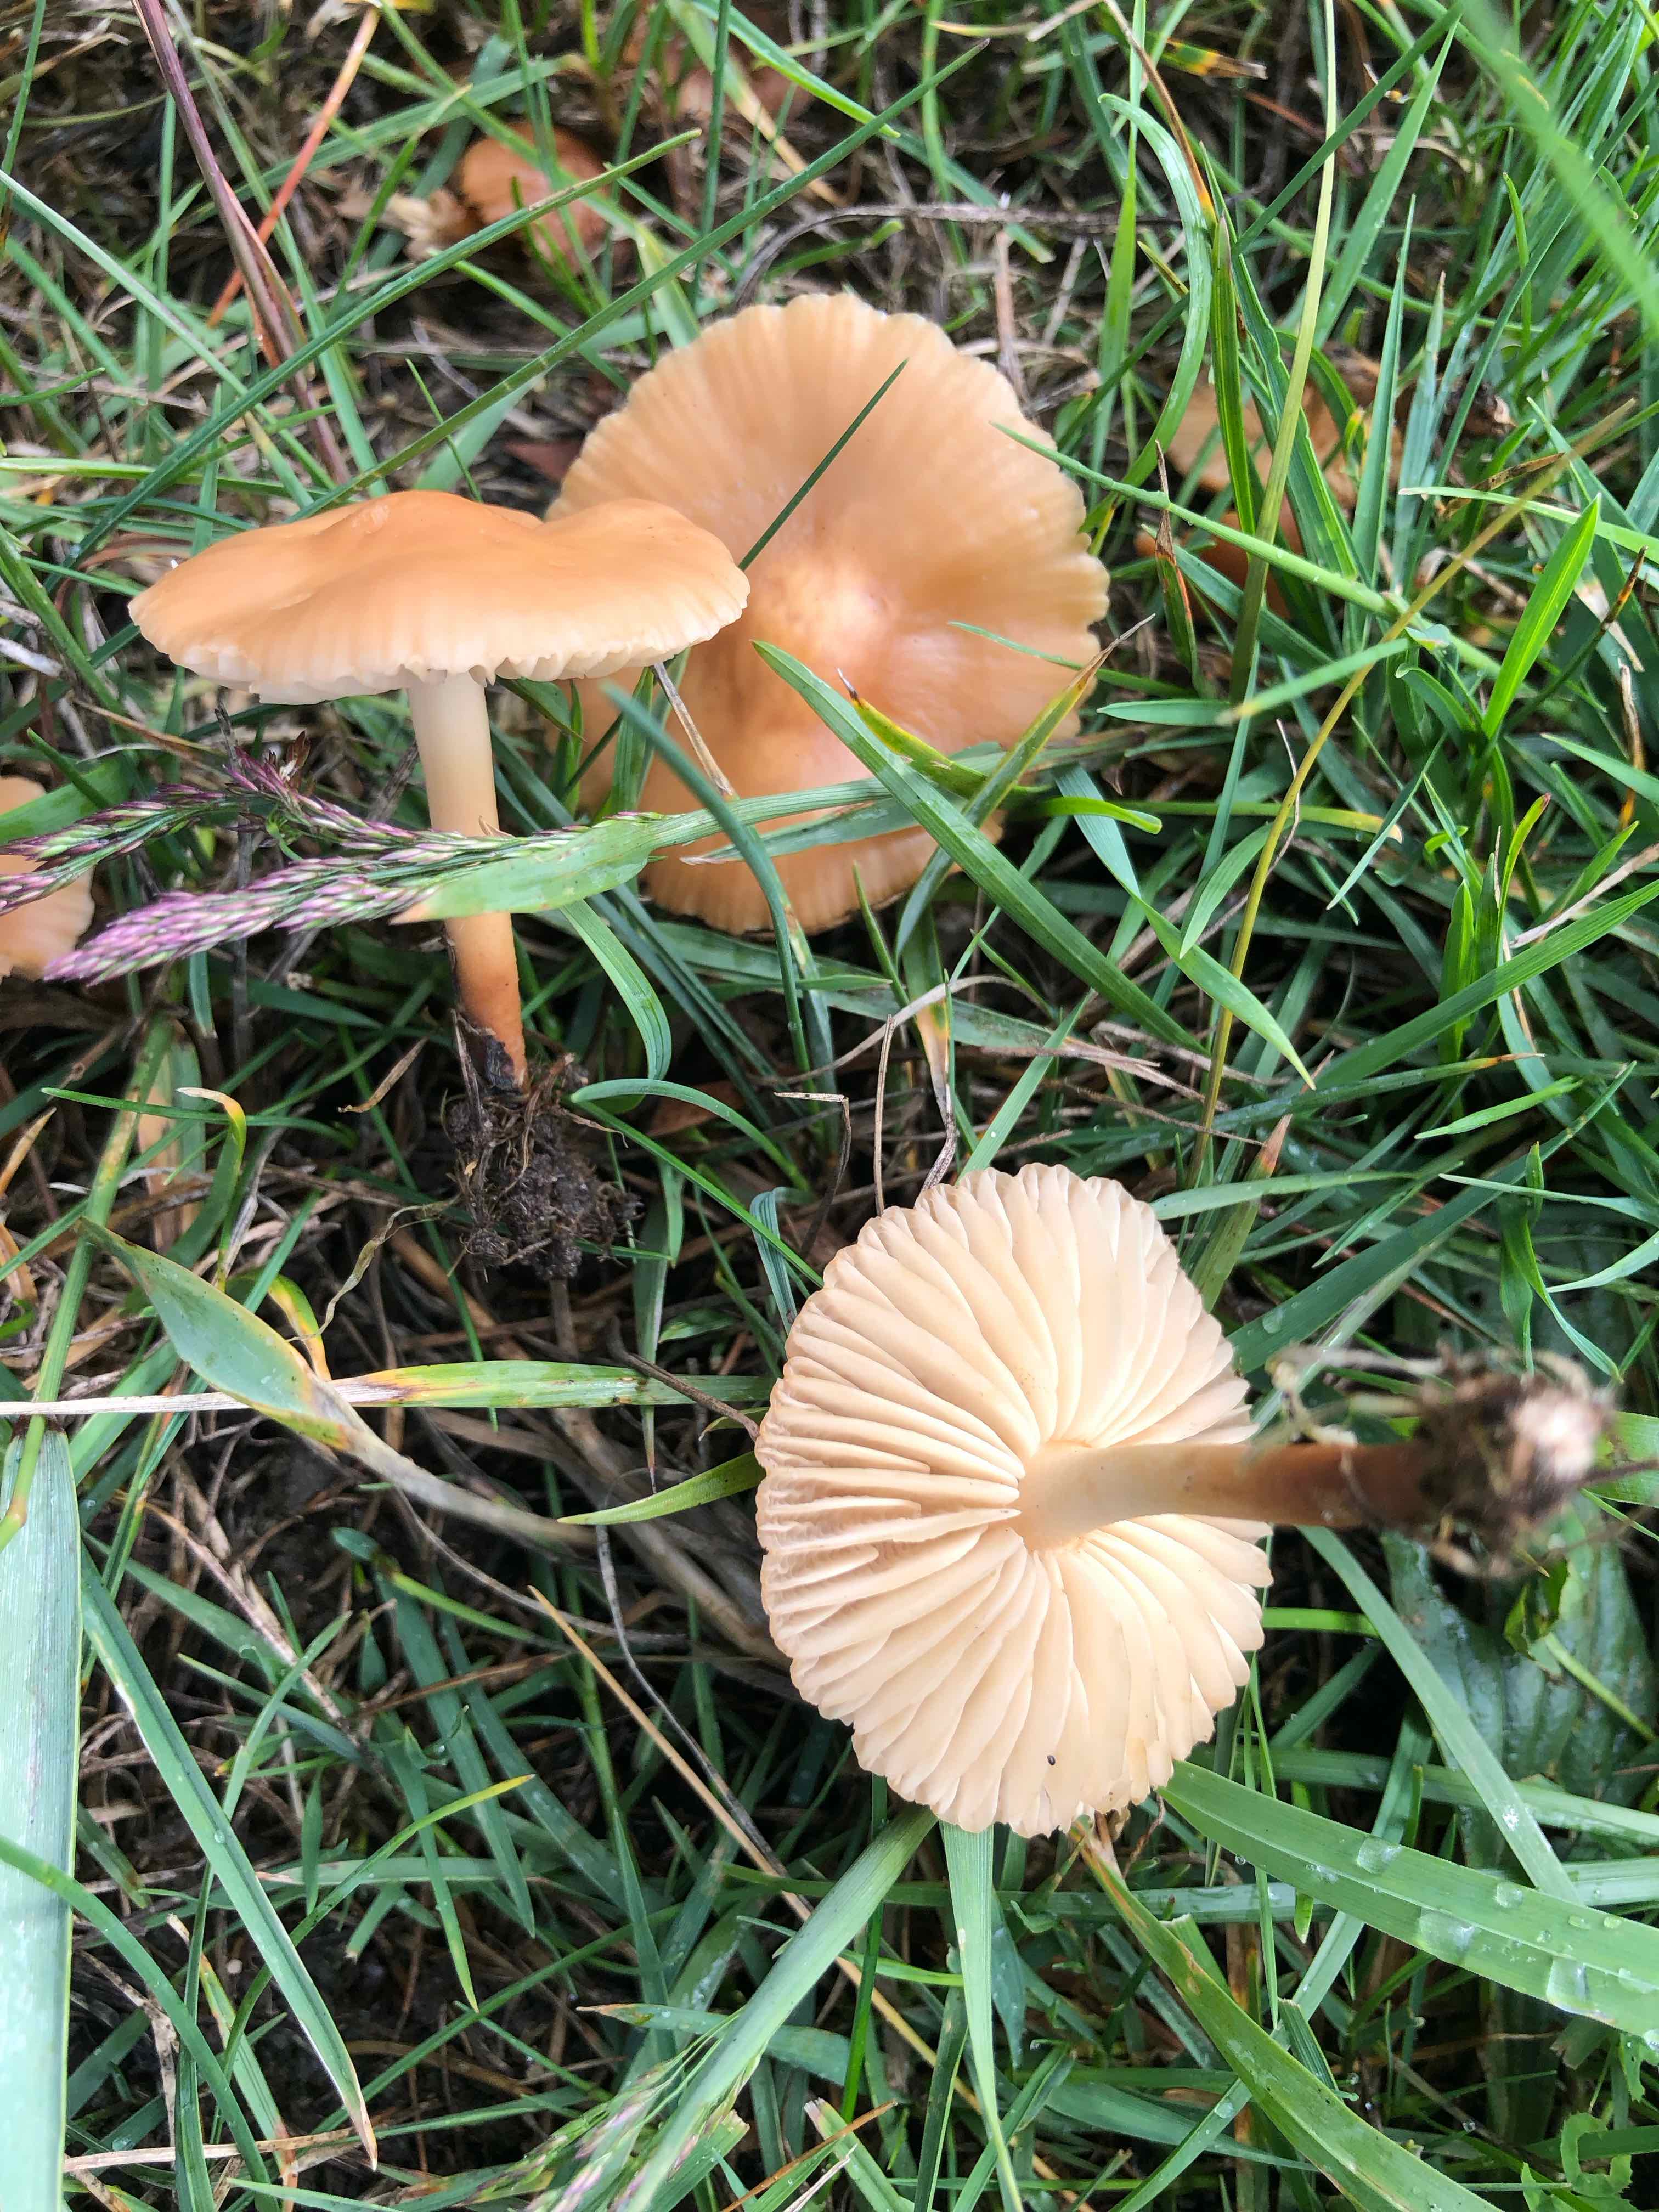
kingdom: Fungi
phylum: Basidiomycota
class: Agaricomycetes
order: Agaricales
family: Marasmiaceae
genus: Marasmius
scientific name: Marasmius oreades
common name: elledans-bruskhat
